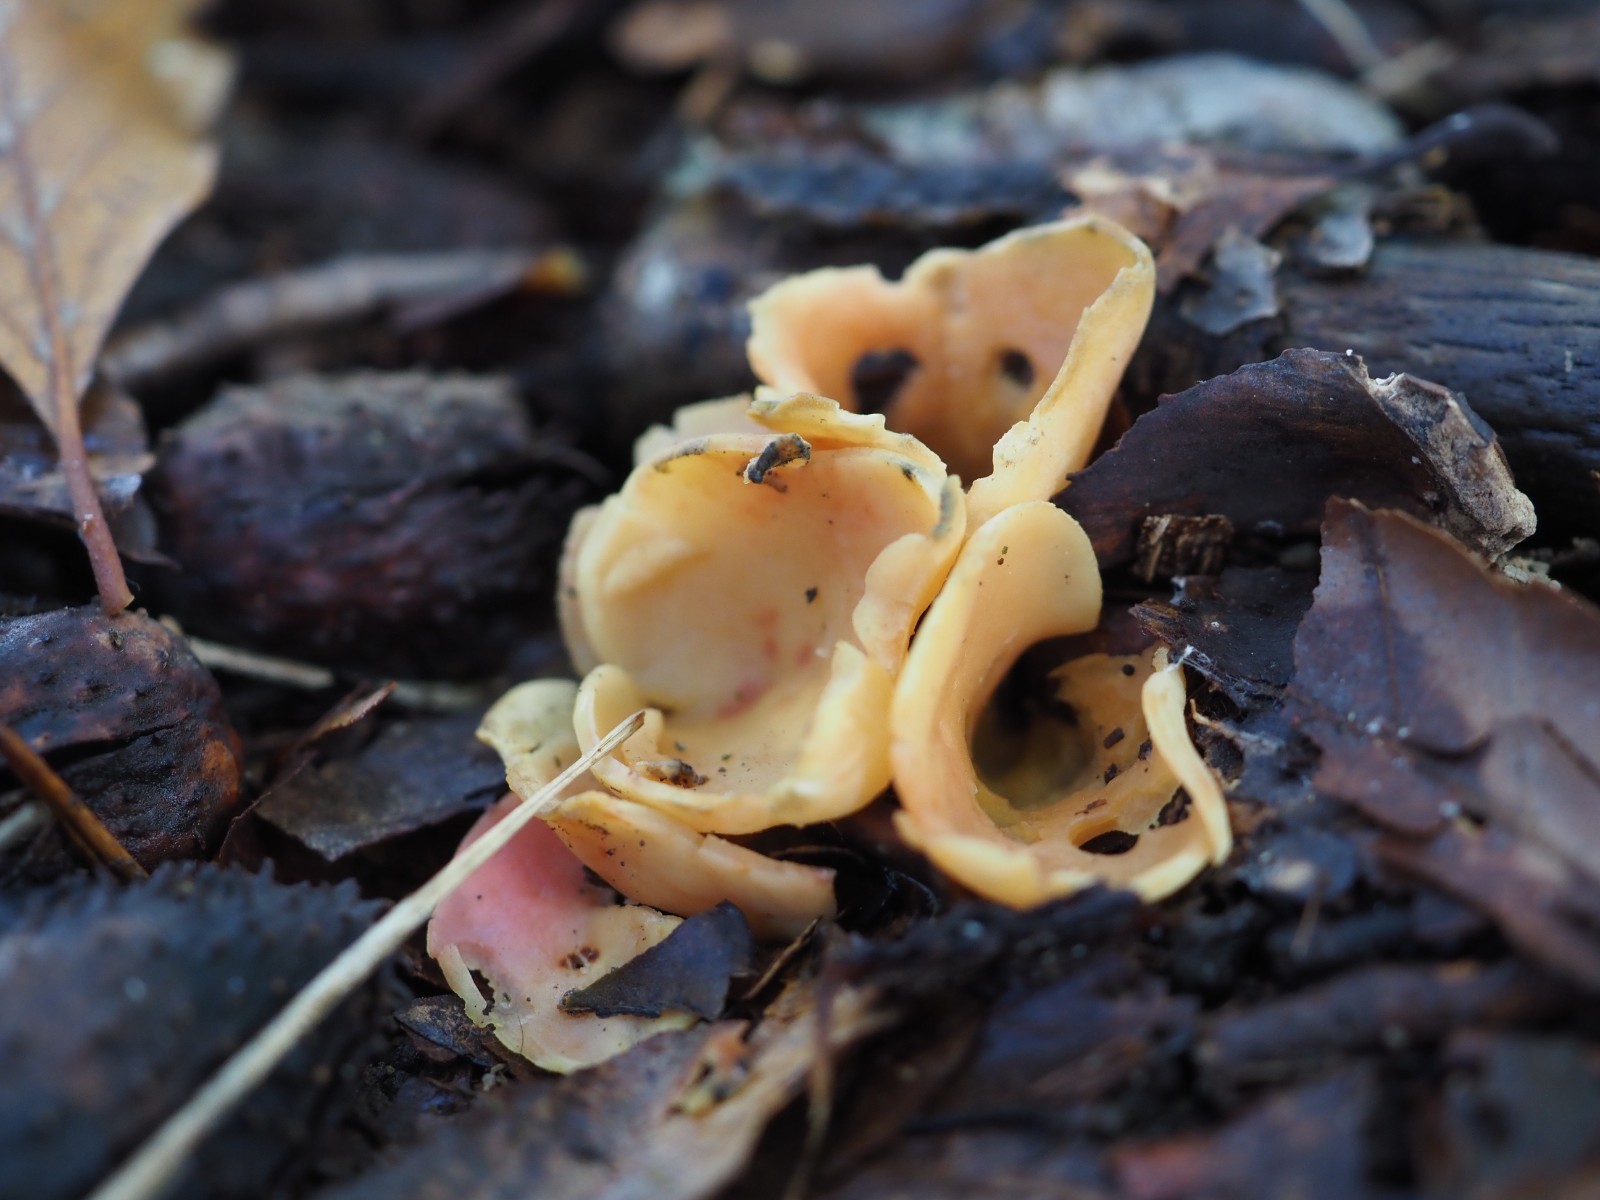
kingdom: Fungi
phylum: Ascomycota
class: Pezizomycetes
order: Pezizales
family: Otideaceae
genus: Otidea
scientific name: Otidea onotica
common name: æsel-ørebæger
